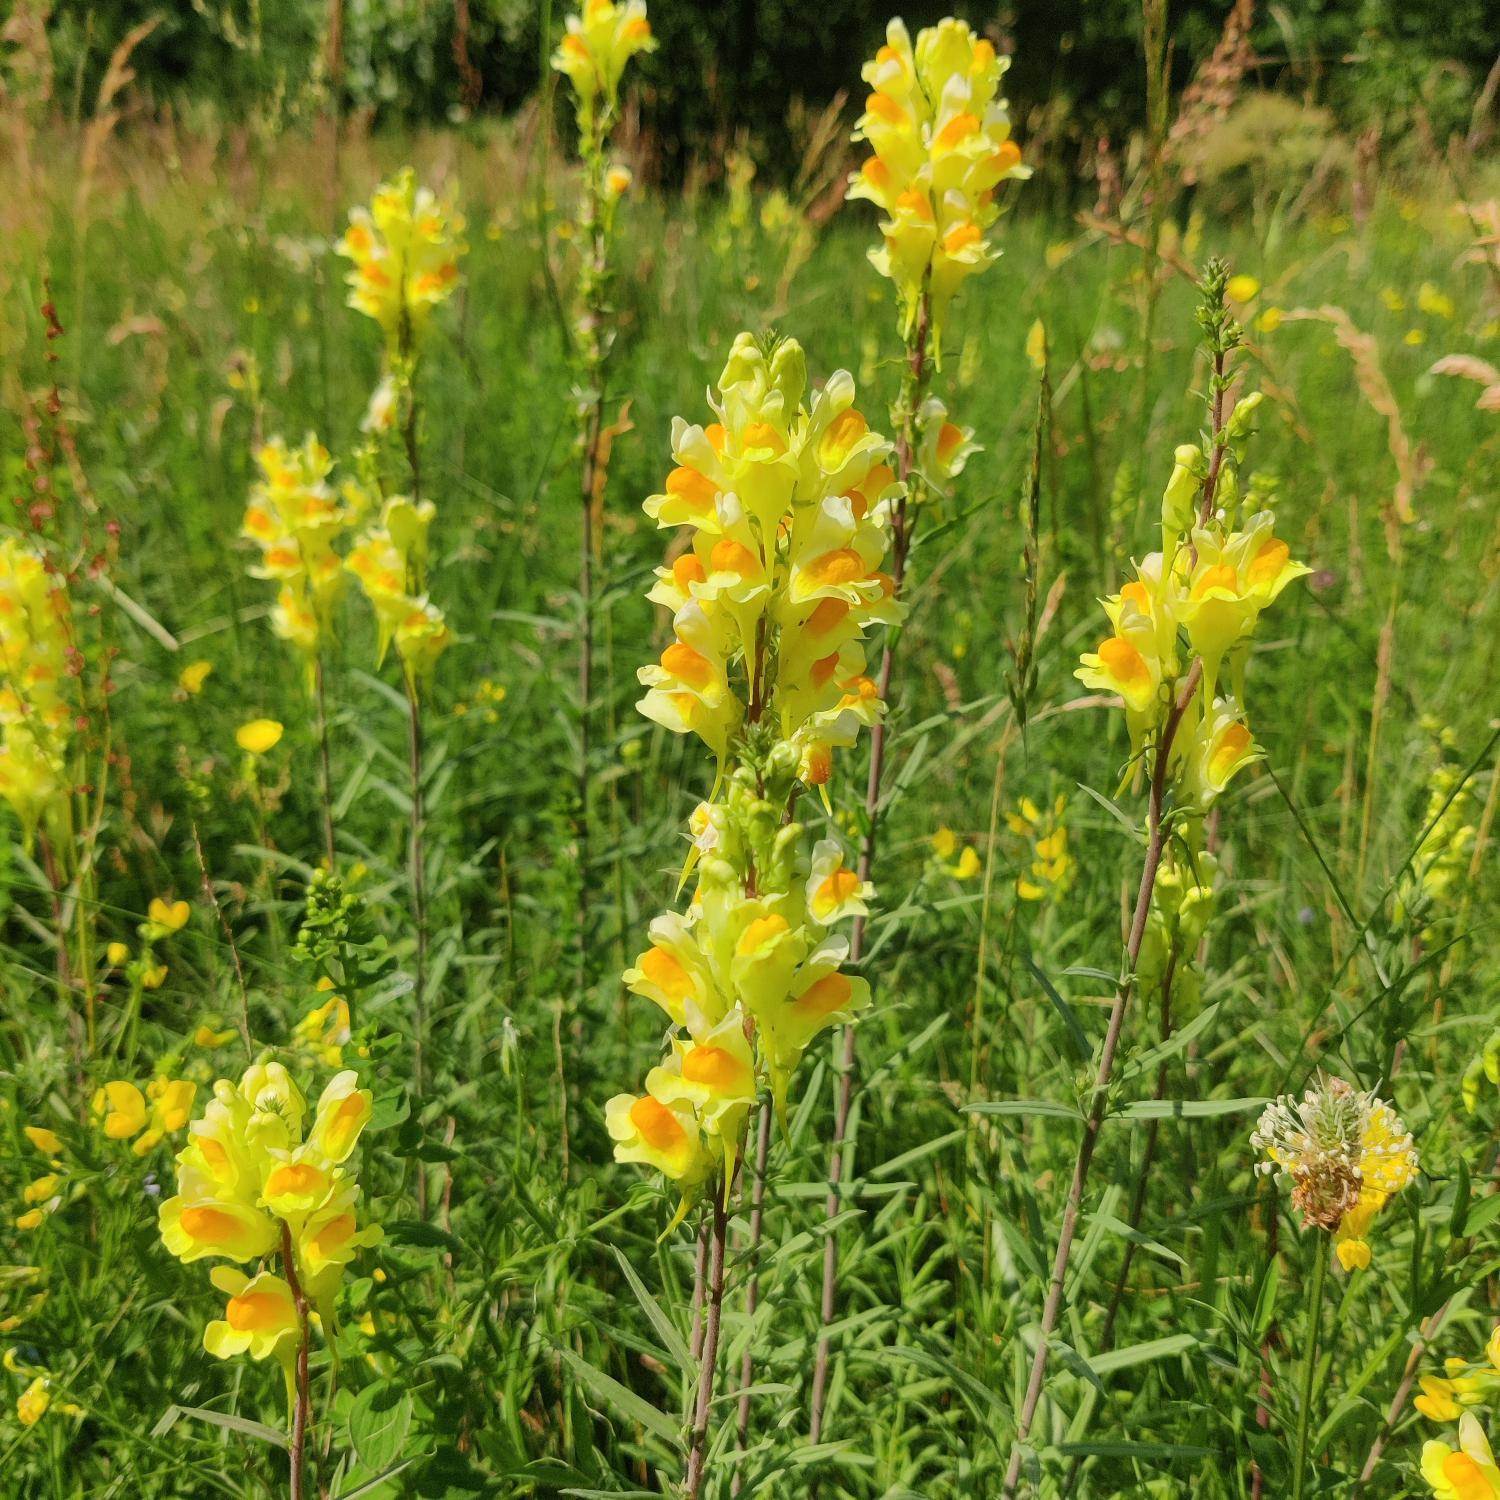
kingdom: Plantae
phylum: Tracheophyta
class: Magnoliopsida
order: Lamiales
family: Plantaginaceae
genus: Linaria
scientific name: Linaria vulgaris
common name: Almindelig torskemund
